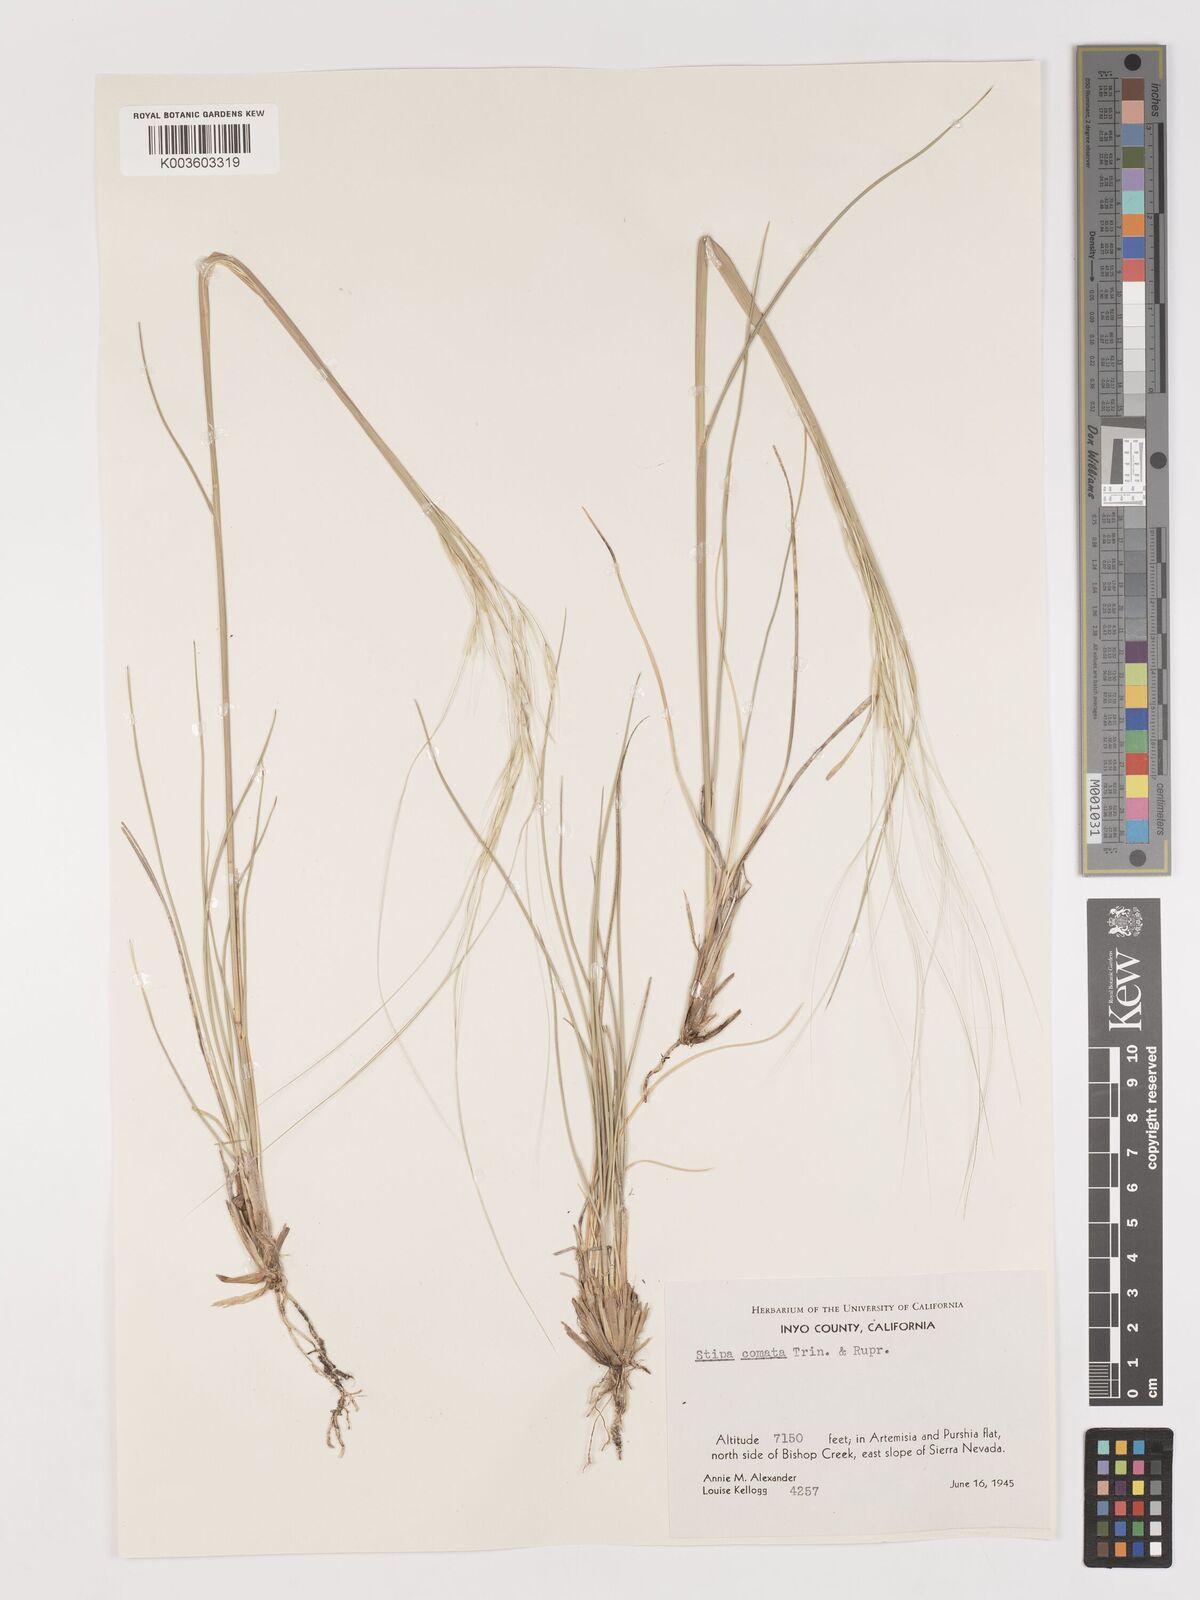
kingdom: Plantae
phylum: Tracheophyta
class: Liliopsida
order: Poales
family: Poaceae
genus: Hesperostipa
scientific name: Hesperostipa comata
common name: Needle-and-thread grass
